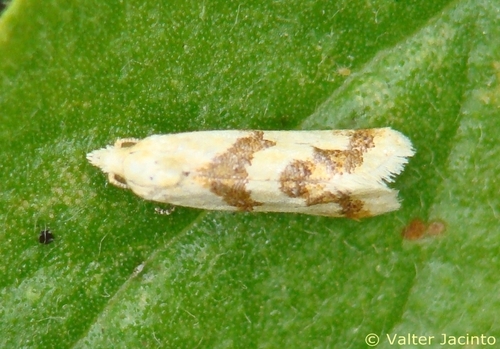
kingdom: Animalia
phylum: Arthropoda
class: Insecta
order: Lepidoptera
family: Tortricidae
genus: Aethes
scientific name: Aethes bilbaensis
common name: Samphire conch
